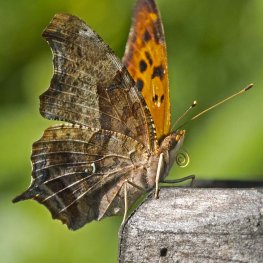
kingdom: Animalia
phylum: Arthropoda
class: Insecta
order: Lepidoptera
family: Nymphalidae
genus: Polygonia
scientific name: Polygonia interrogationis
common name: Question Mark
